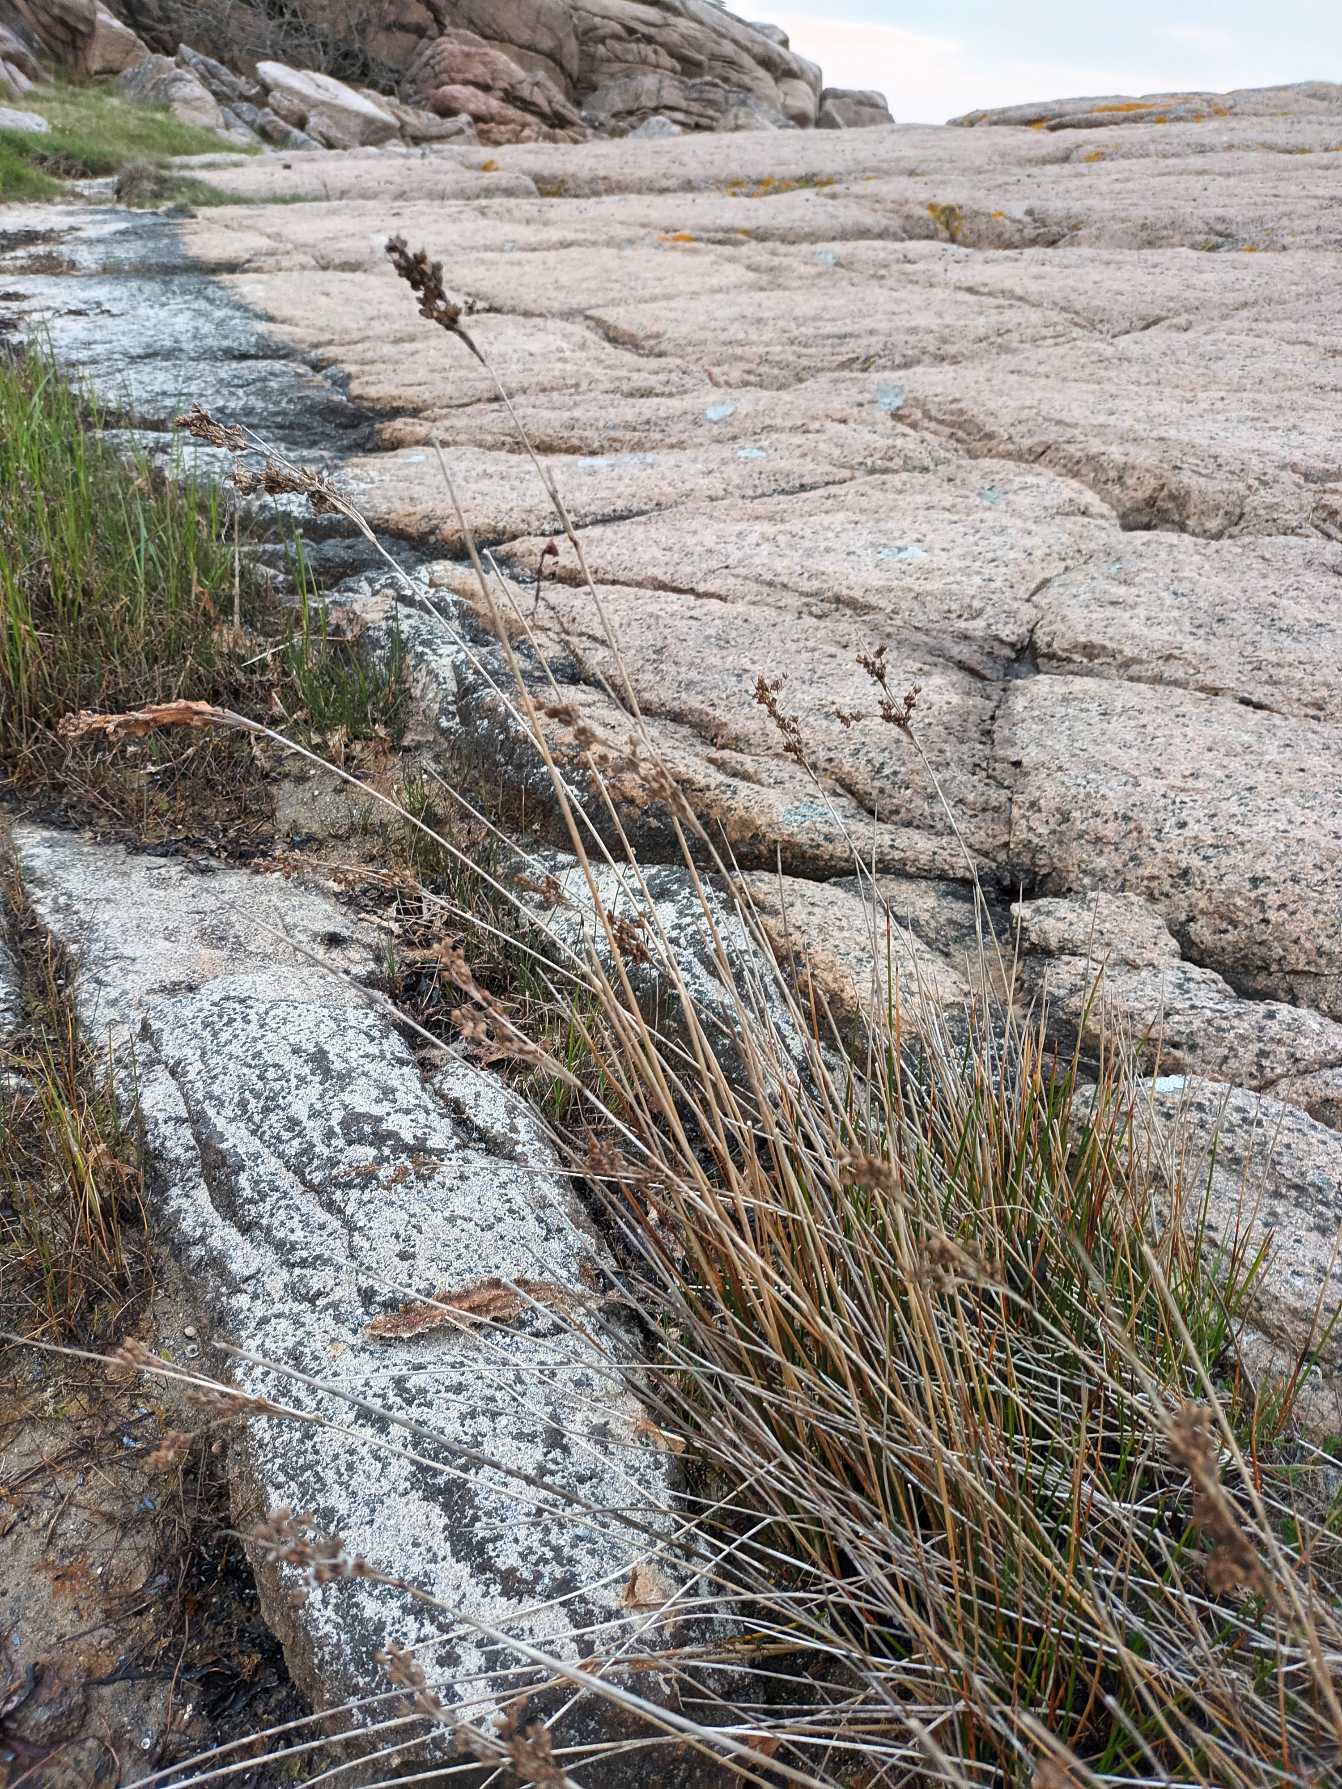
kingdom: Plantae
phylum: Tracheophyta
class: Liliopsida
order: Poales
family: Juncaceae
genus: Juncus
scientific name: Juncus maritimus
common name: Strand-siv
